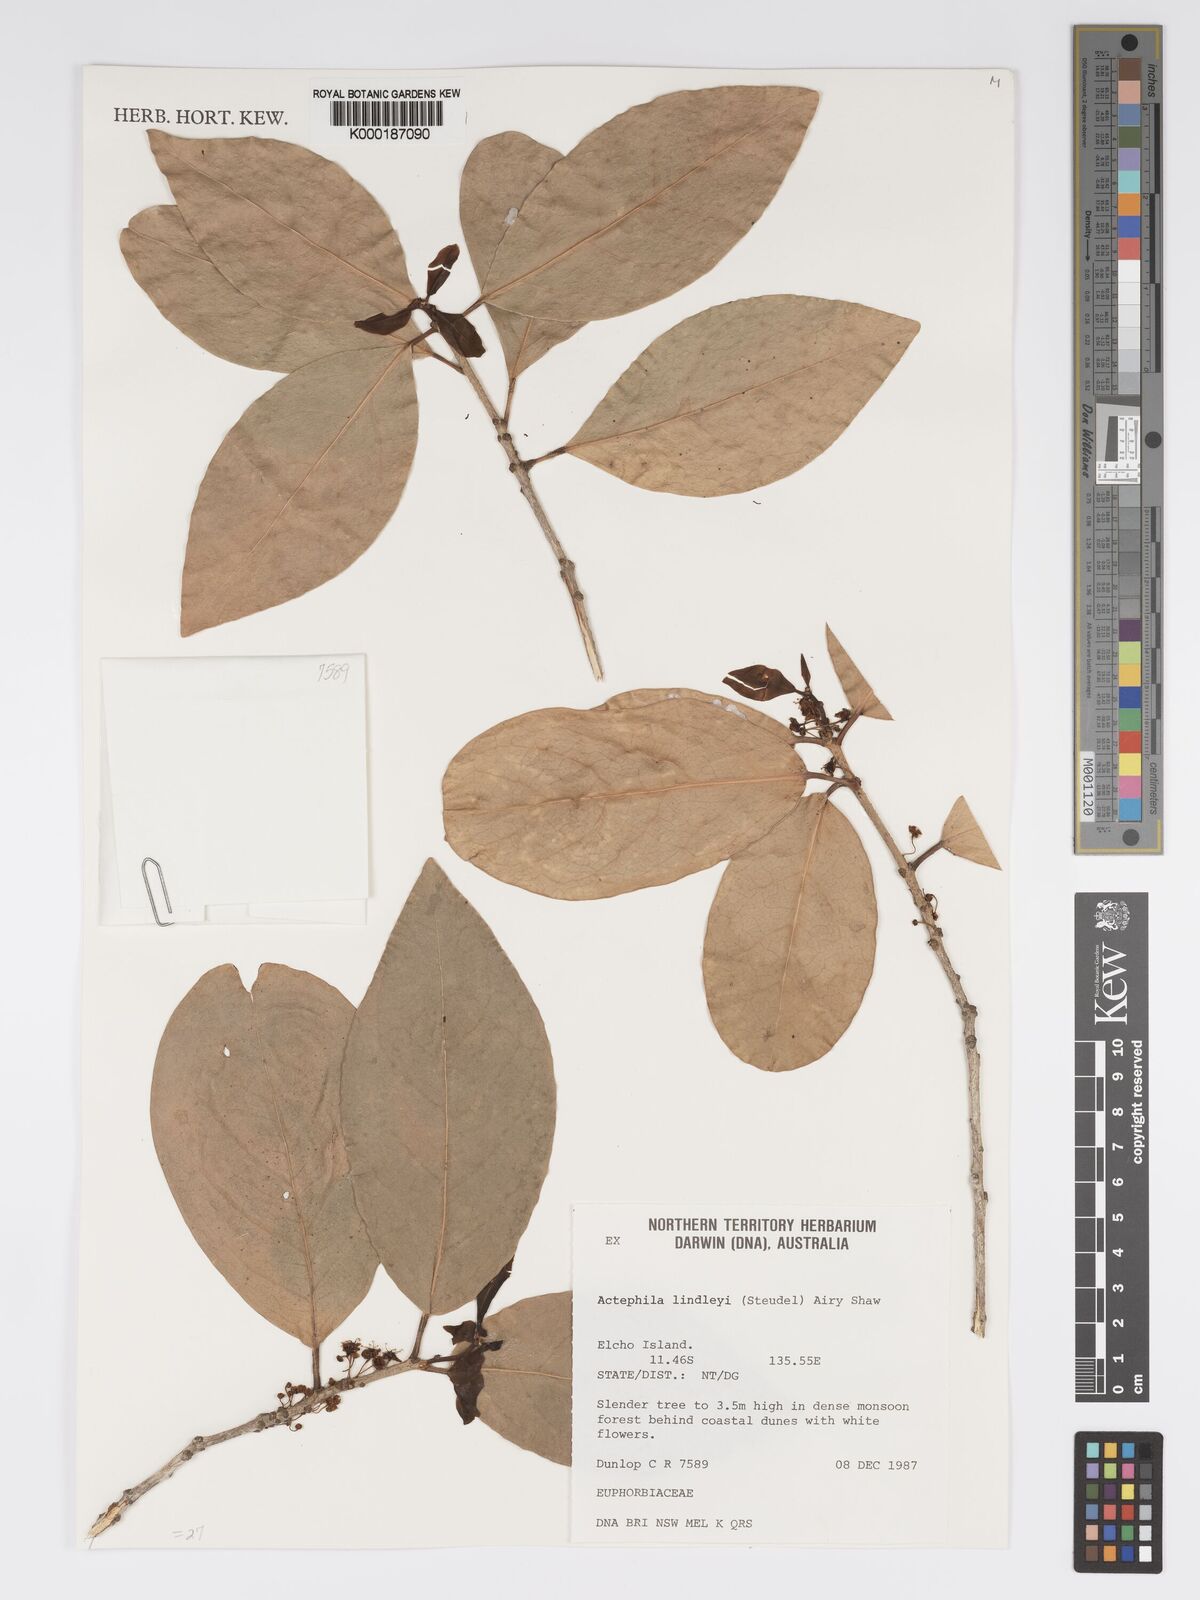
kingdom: Plantae
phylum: Tracheophyta
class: Magnoliopsida
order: Malpighiales
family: Phyllanthaceae
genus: Actephila
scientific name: Actephila lindleyi
